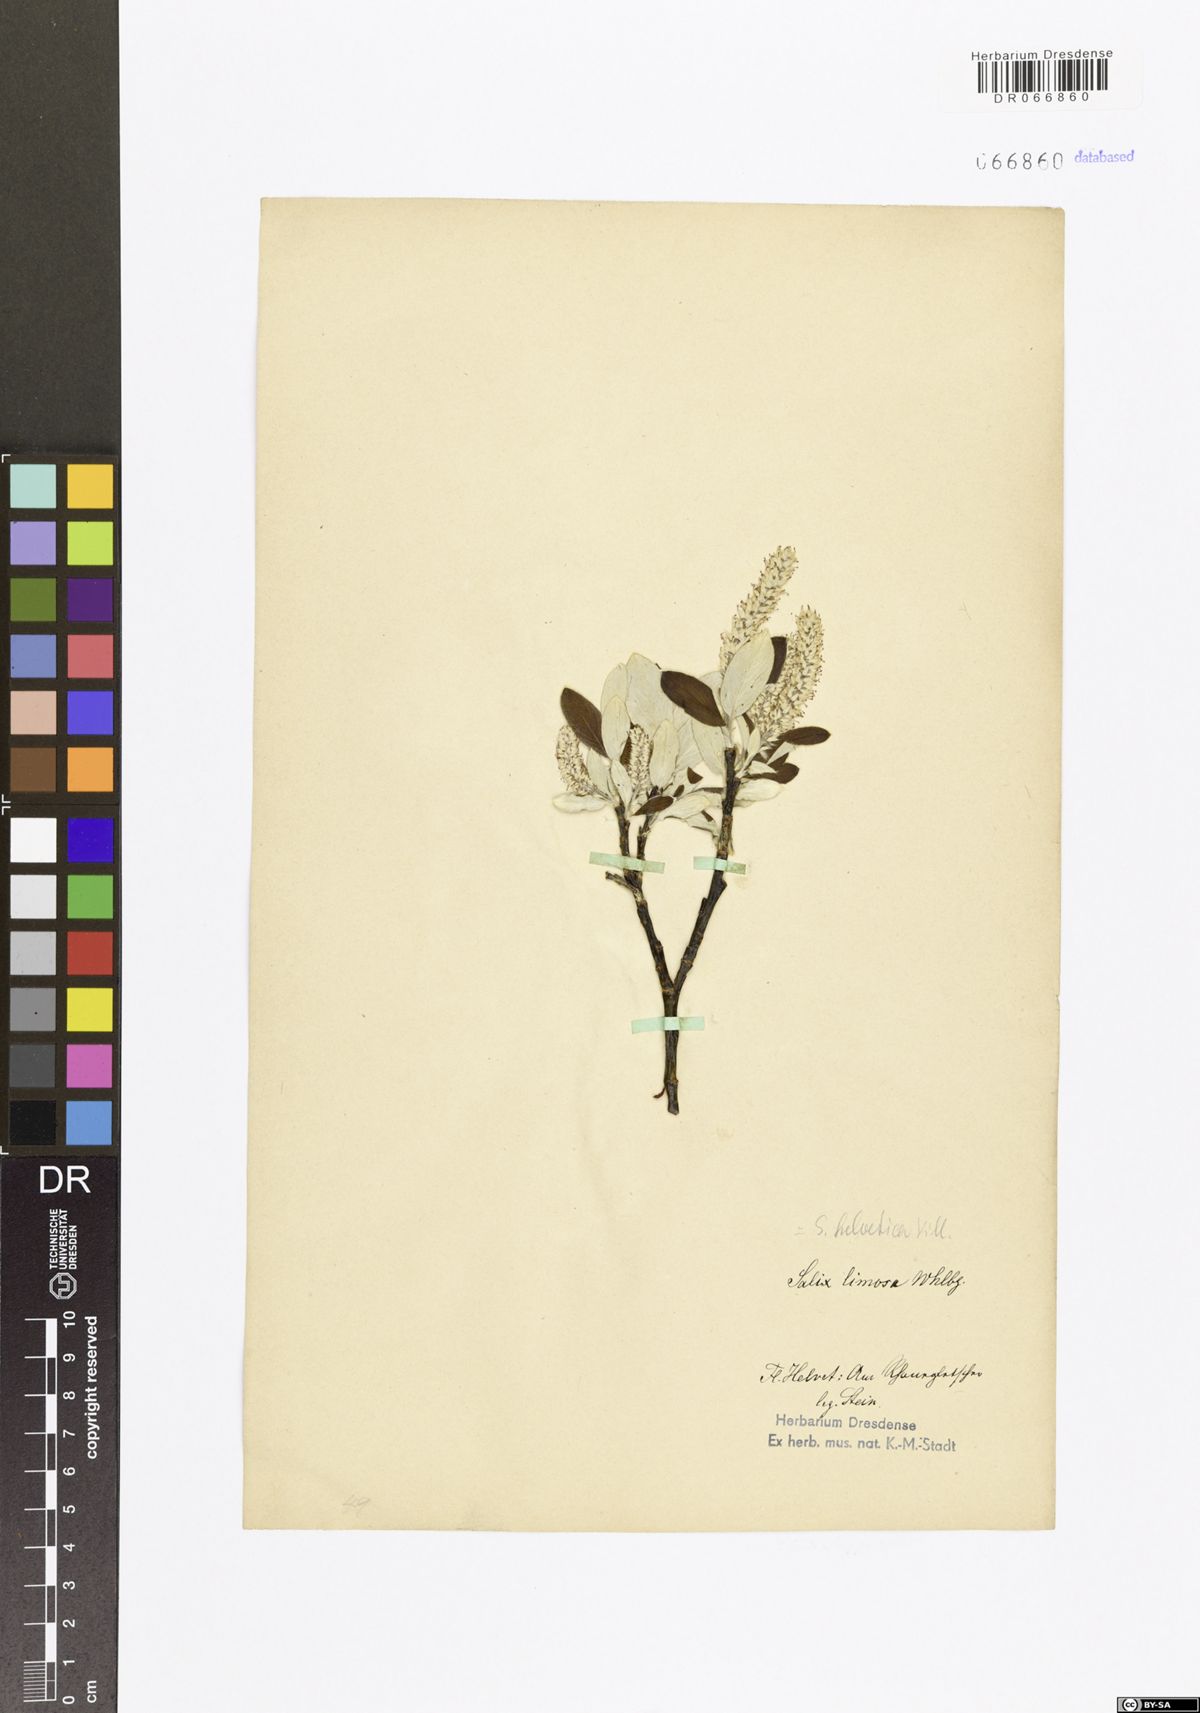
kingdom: Plantae
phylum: Tracheophyta
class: Magnoliopsida
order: Malpighiales
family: Salicaceae
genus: Salix
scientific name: Salix helvetica
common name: Swiss willow
